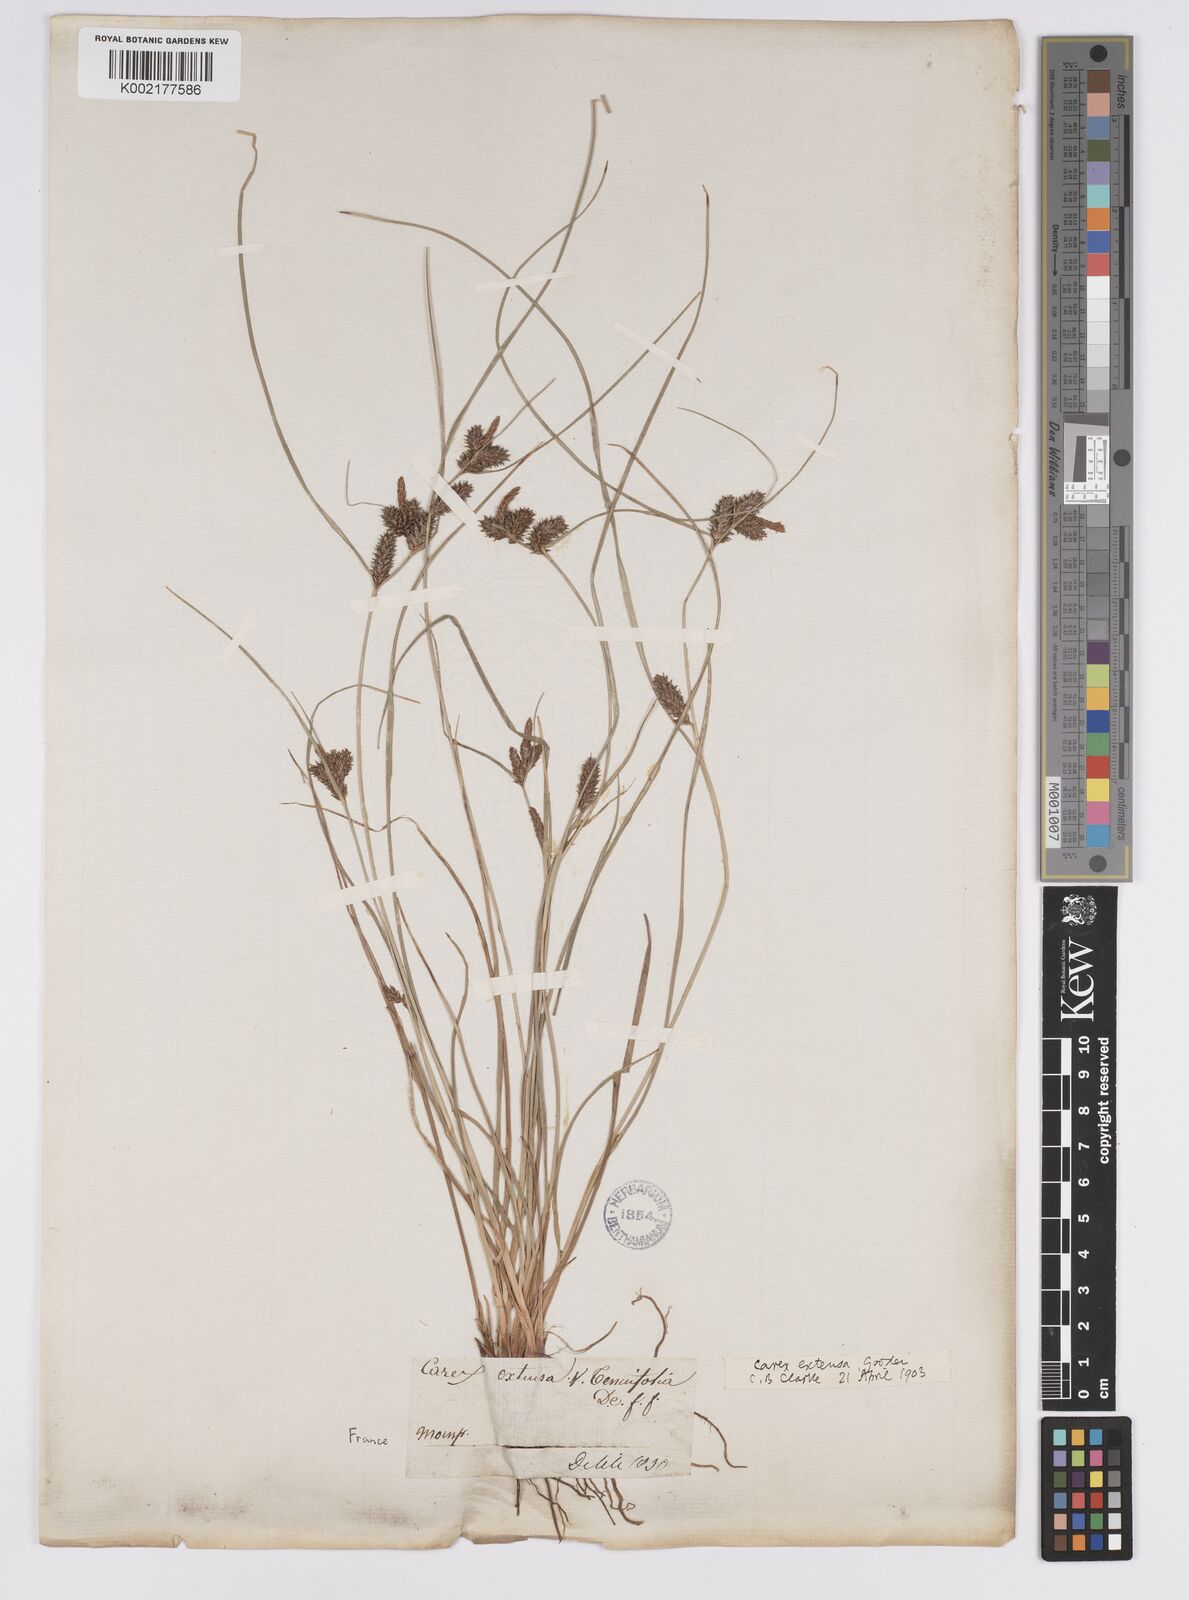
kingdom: Plantae
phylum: Tracheophyta
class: Liliopsida
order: Poales
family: Cyperaceae
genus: Carex
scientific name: Carex extensa
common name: Long-bracted sedge
